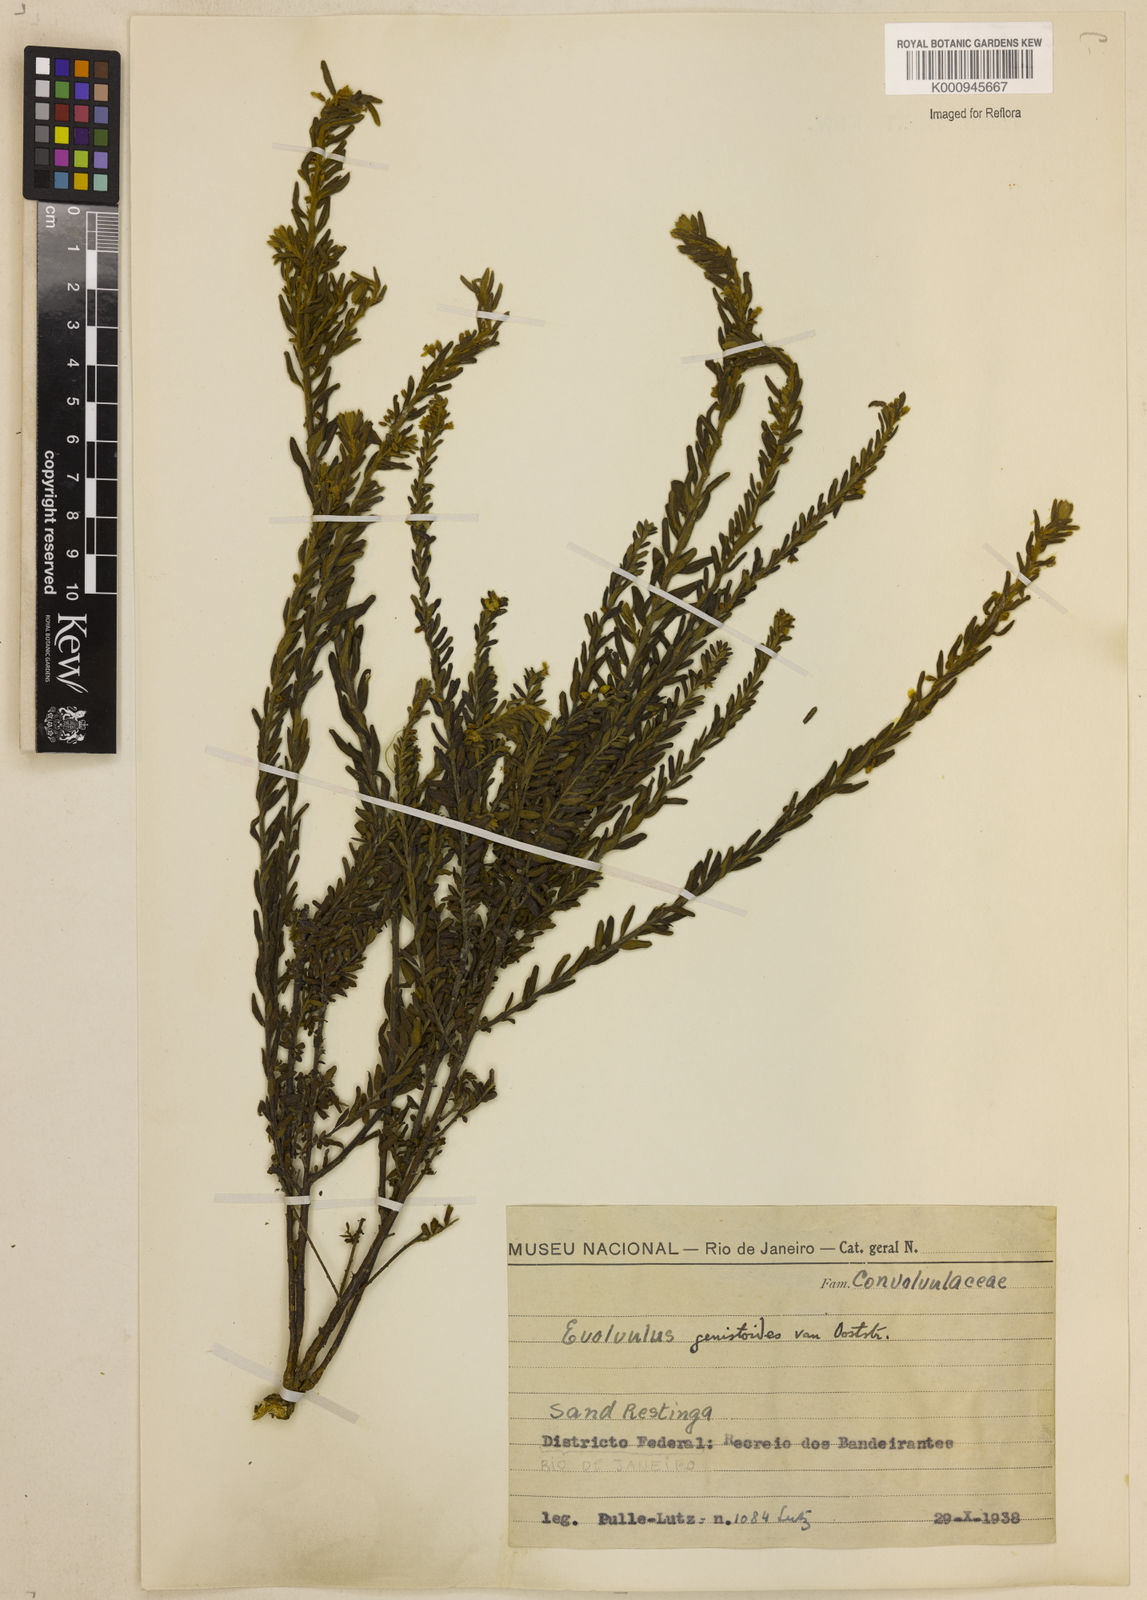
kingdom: Plantae
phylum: Tracheophyta
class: Magnoliopsida
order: Solanales
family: Convolvulaceae
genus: Evolvulus
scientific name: Evolvulus genistoides
